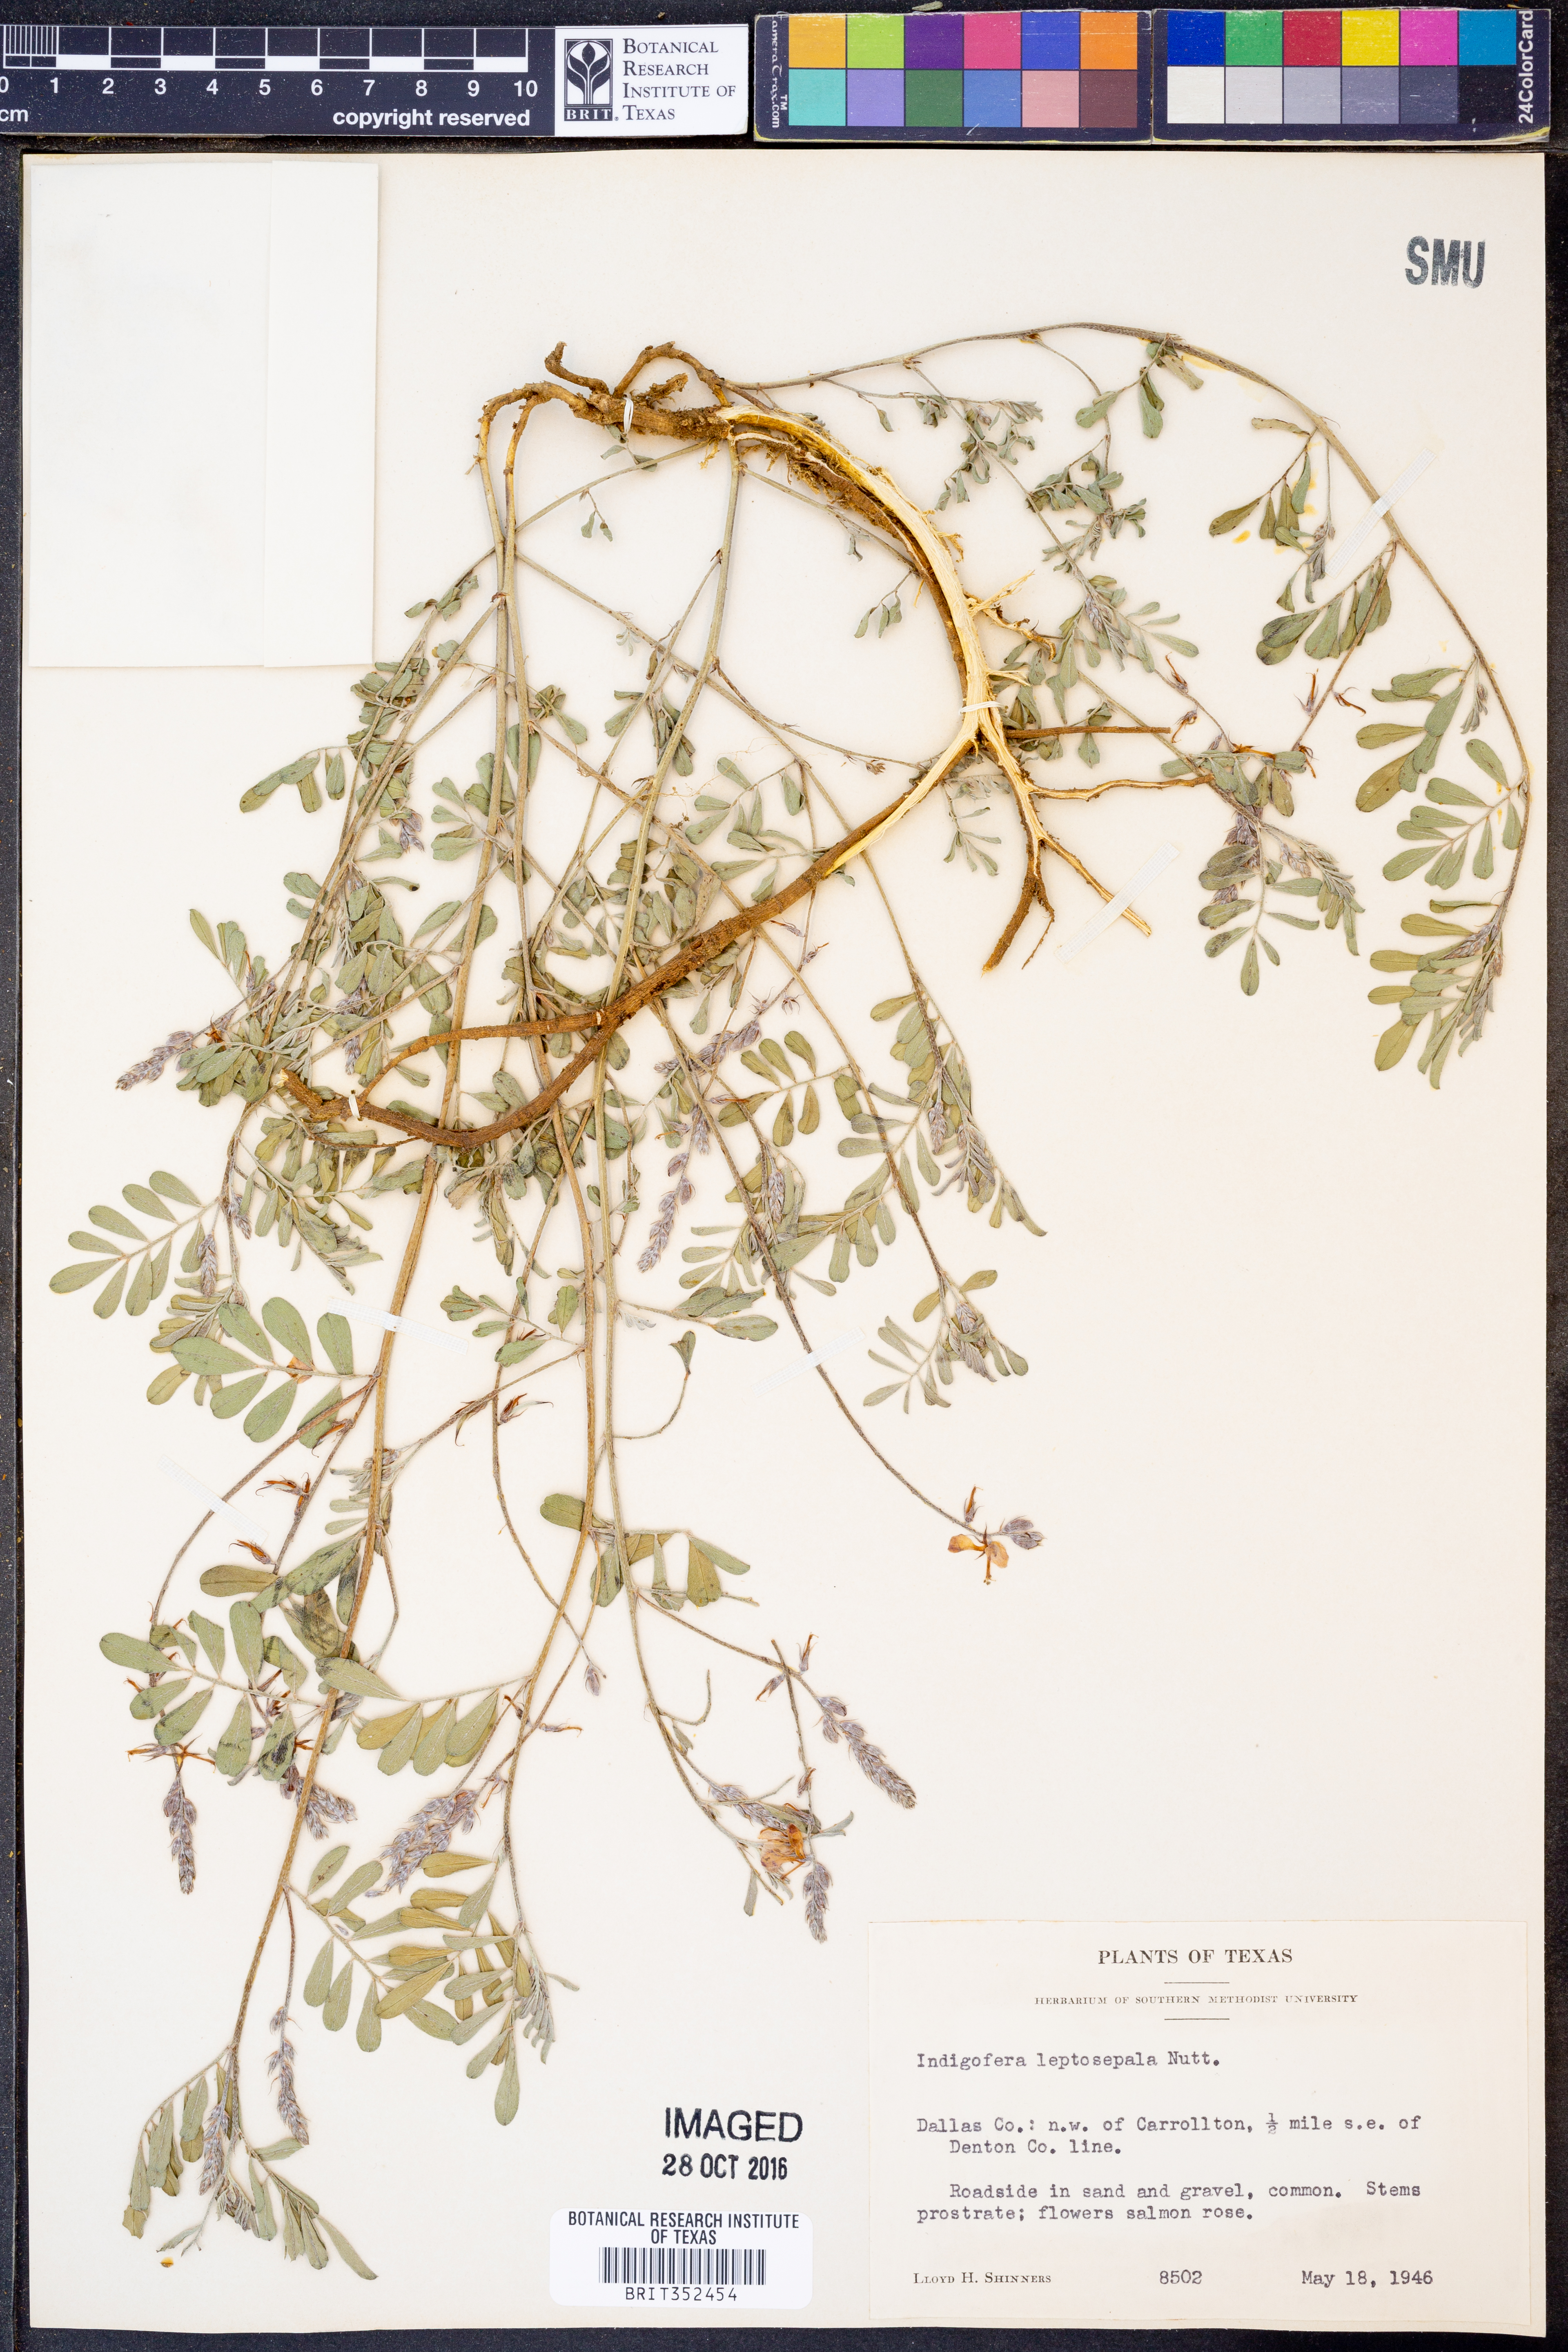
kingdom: Plantae
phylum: Tracheophyta
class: Magnoliopsida
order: Fabales
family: Fabaceae
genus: Indigofera
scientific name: Indigofera argutidens
